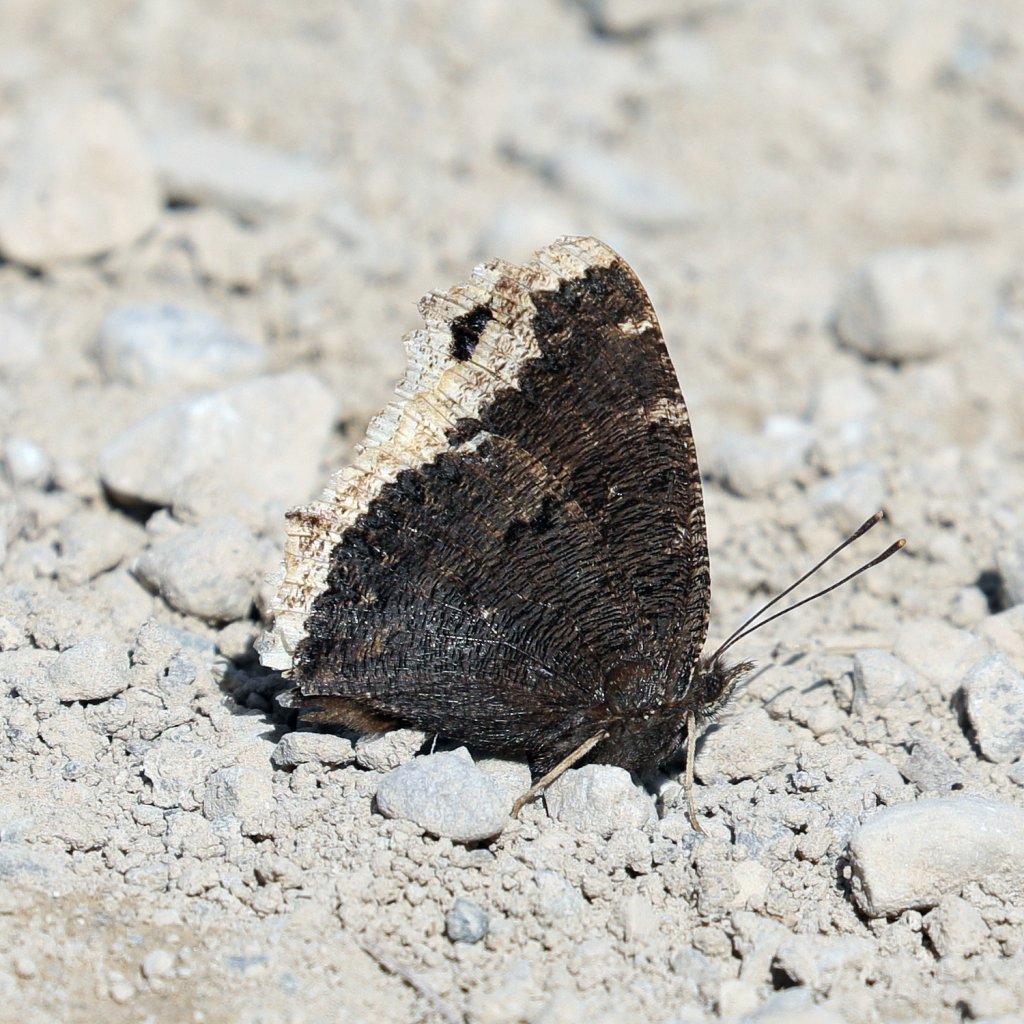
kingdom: Animalia
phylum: Arthropoda
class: Insecta
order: Lepidoptera
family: Nymphalidae
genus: Nymphalis
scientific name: Nymphalis antiopa
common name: Mourning Cloak
